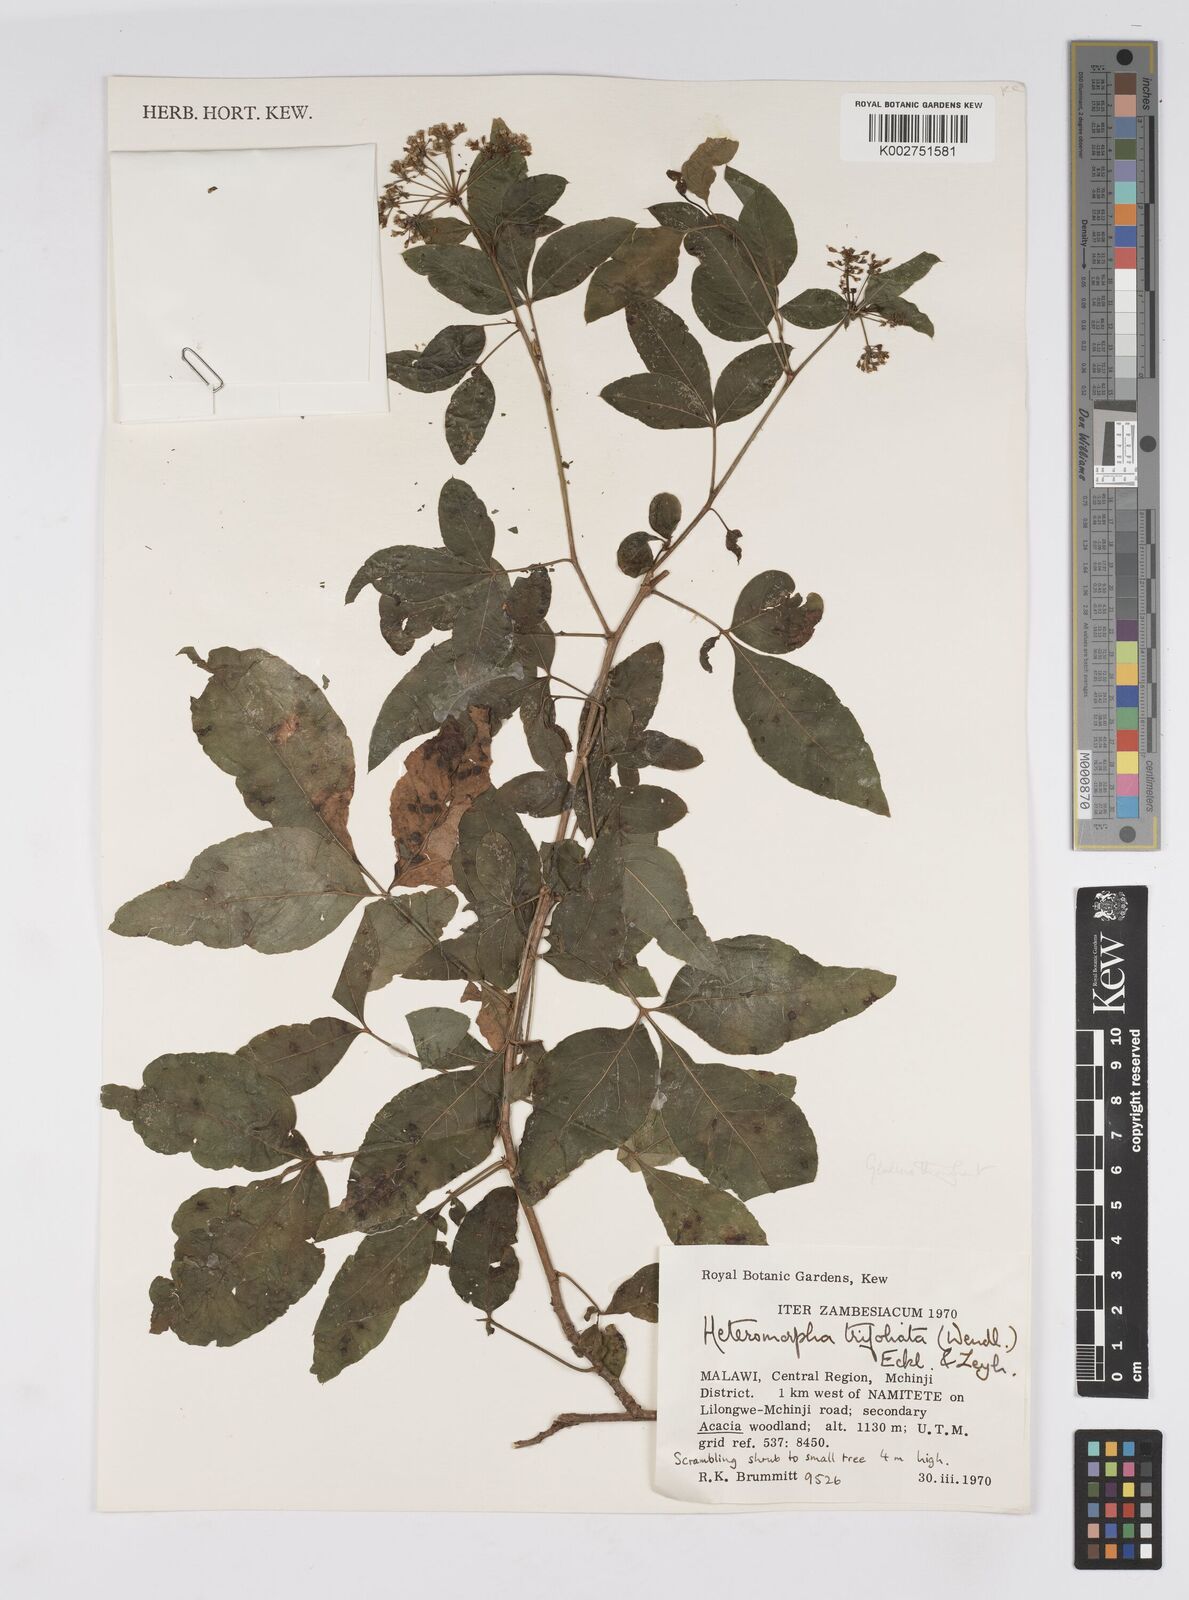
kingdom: Plantae
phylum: Tracheophyta
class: Magnoliopsida
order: Apiales
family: Apiaceae
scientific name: Apiaceae
